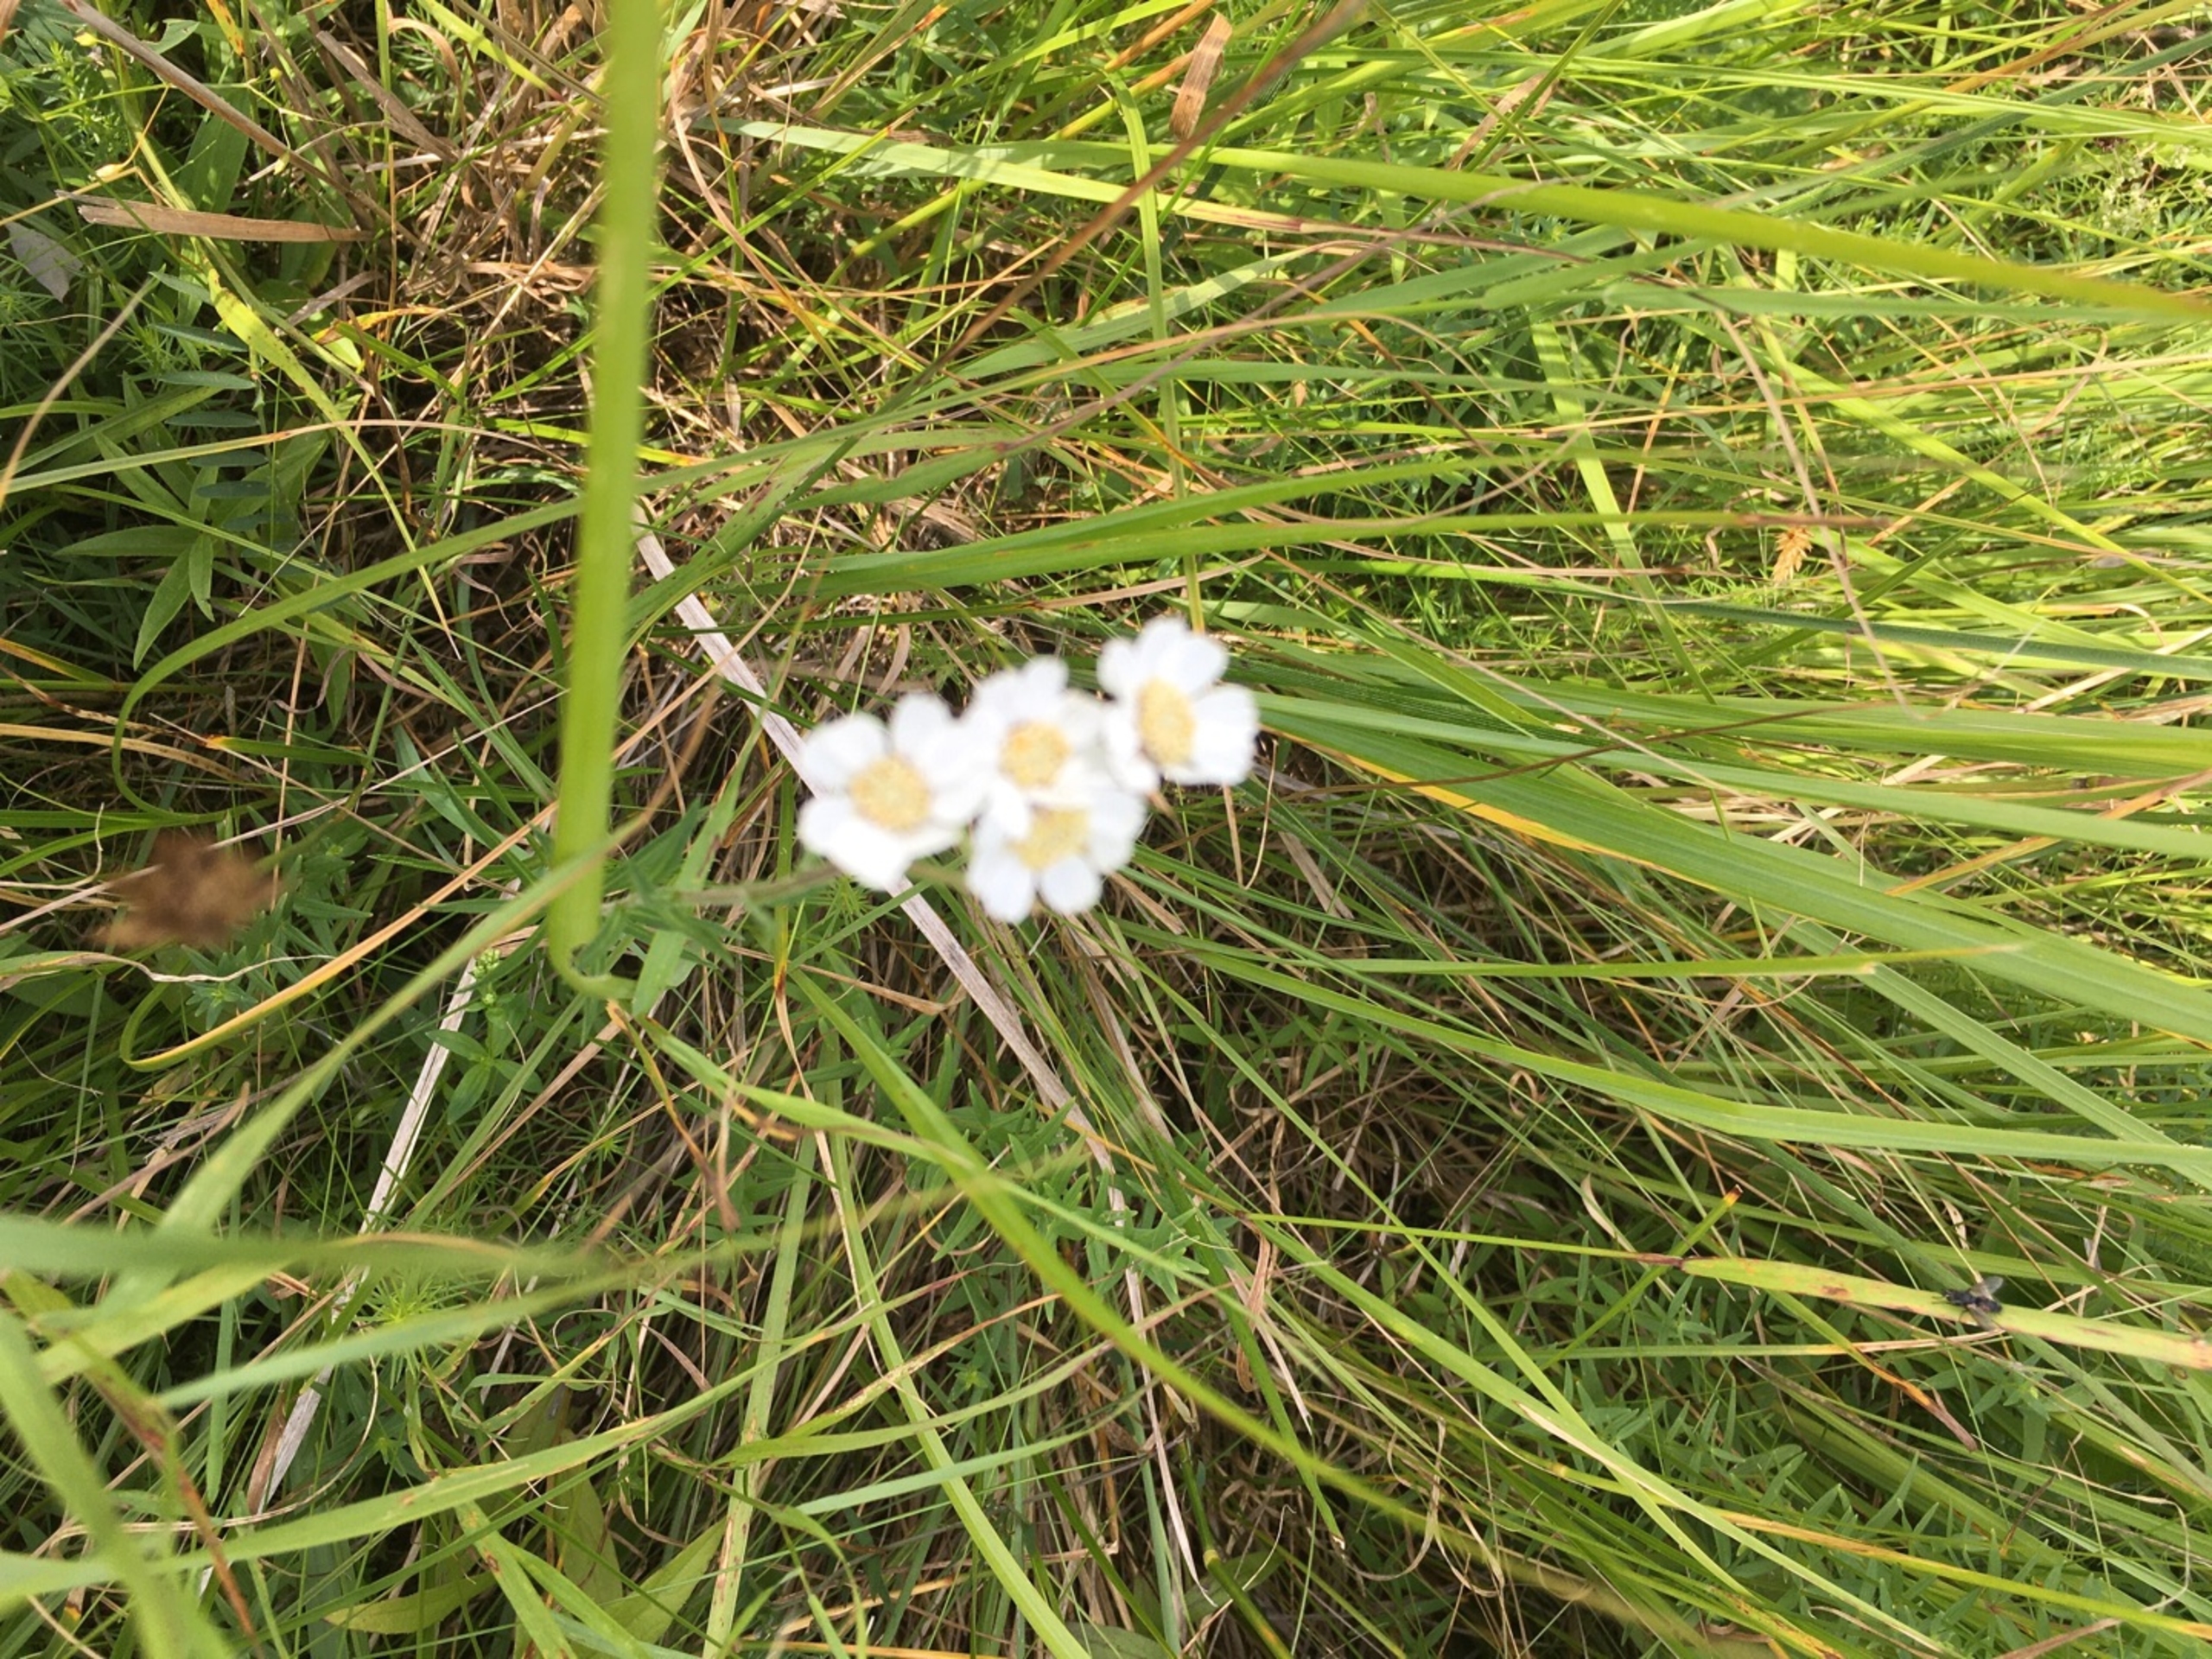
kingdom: Plantae
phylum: Tracheophyta
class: Magnoliopsida
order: Asterales
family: Asteraceae
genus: Achillea
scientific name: Achillea ptarmica
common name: Nyse-røllike
